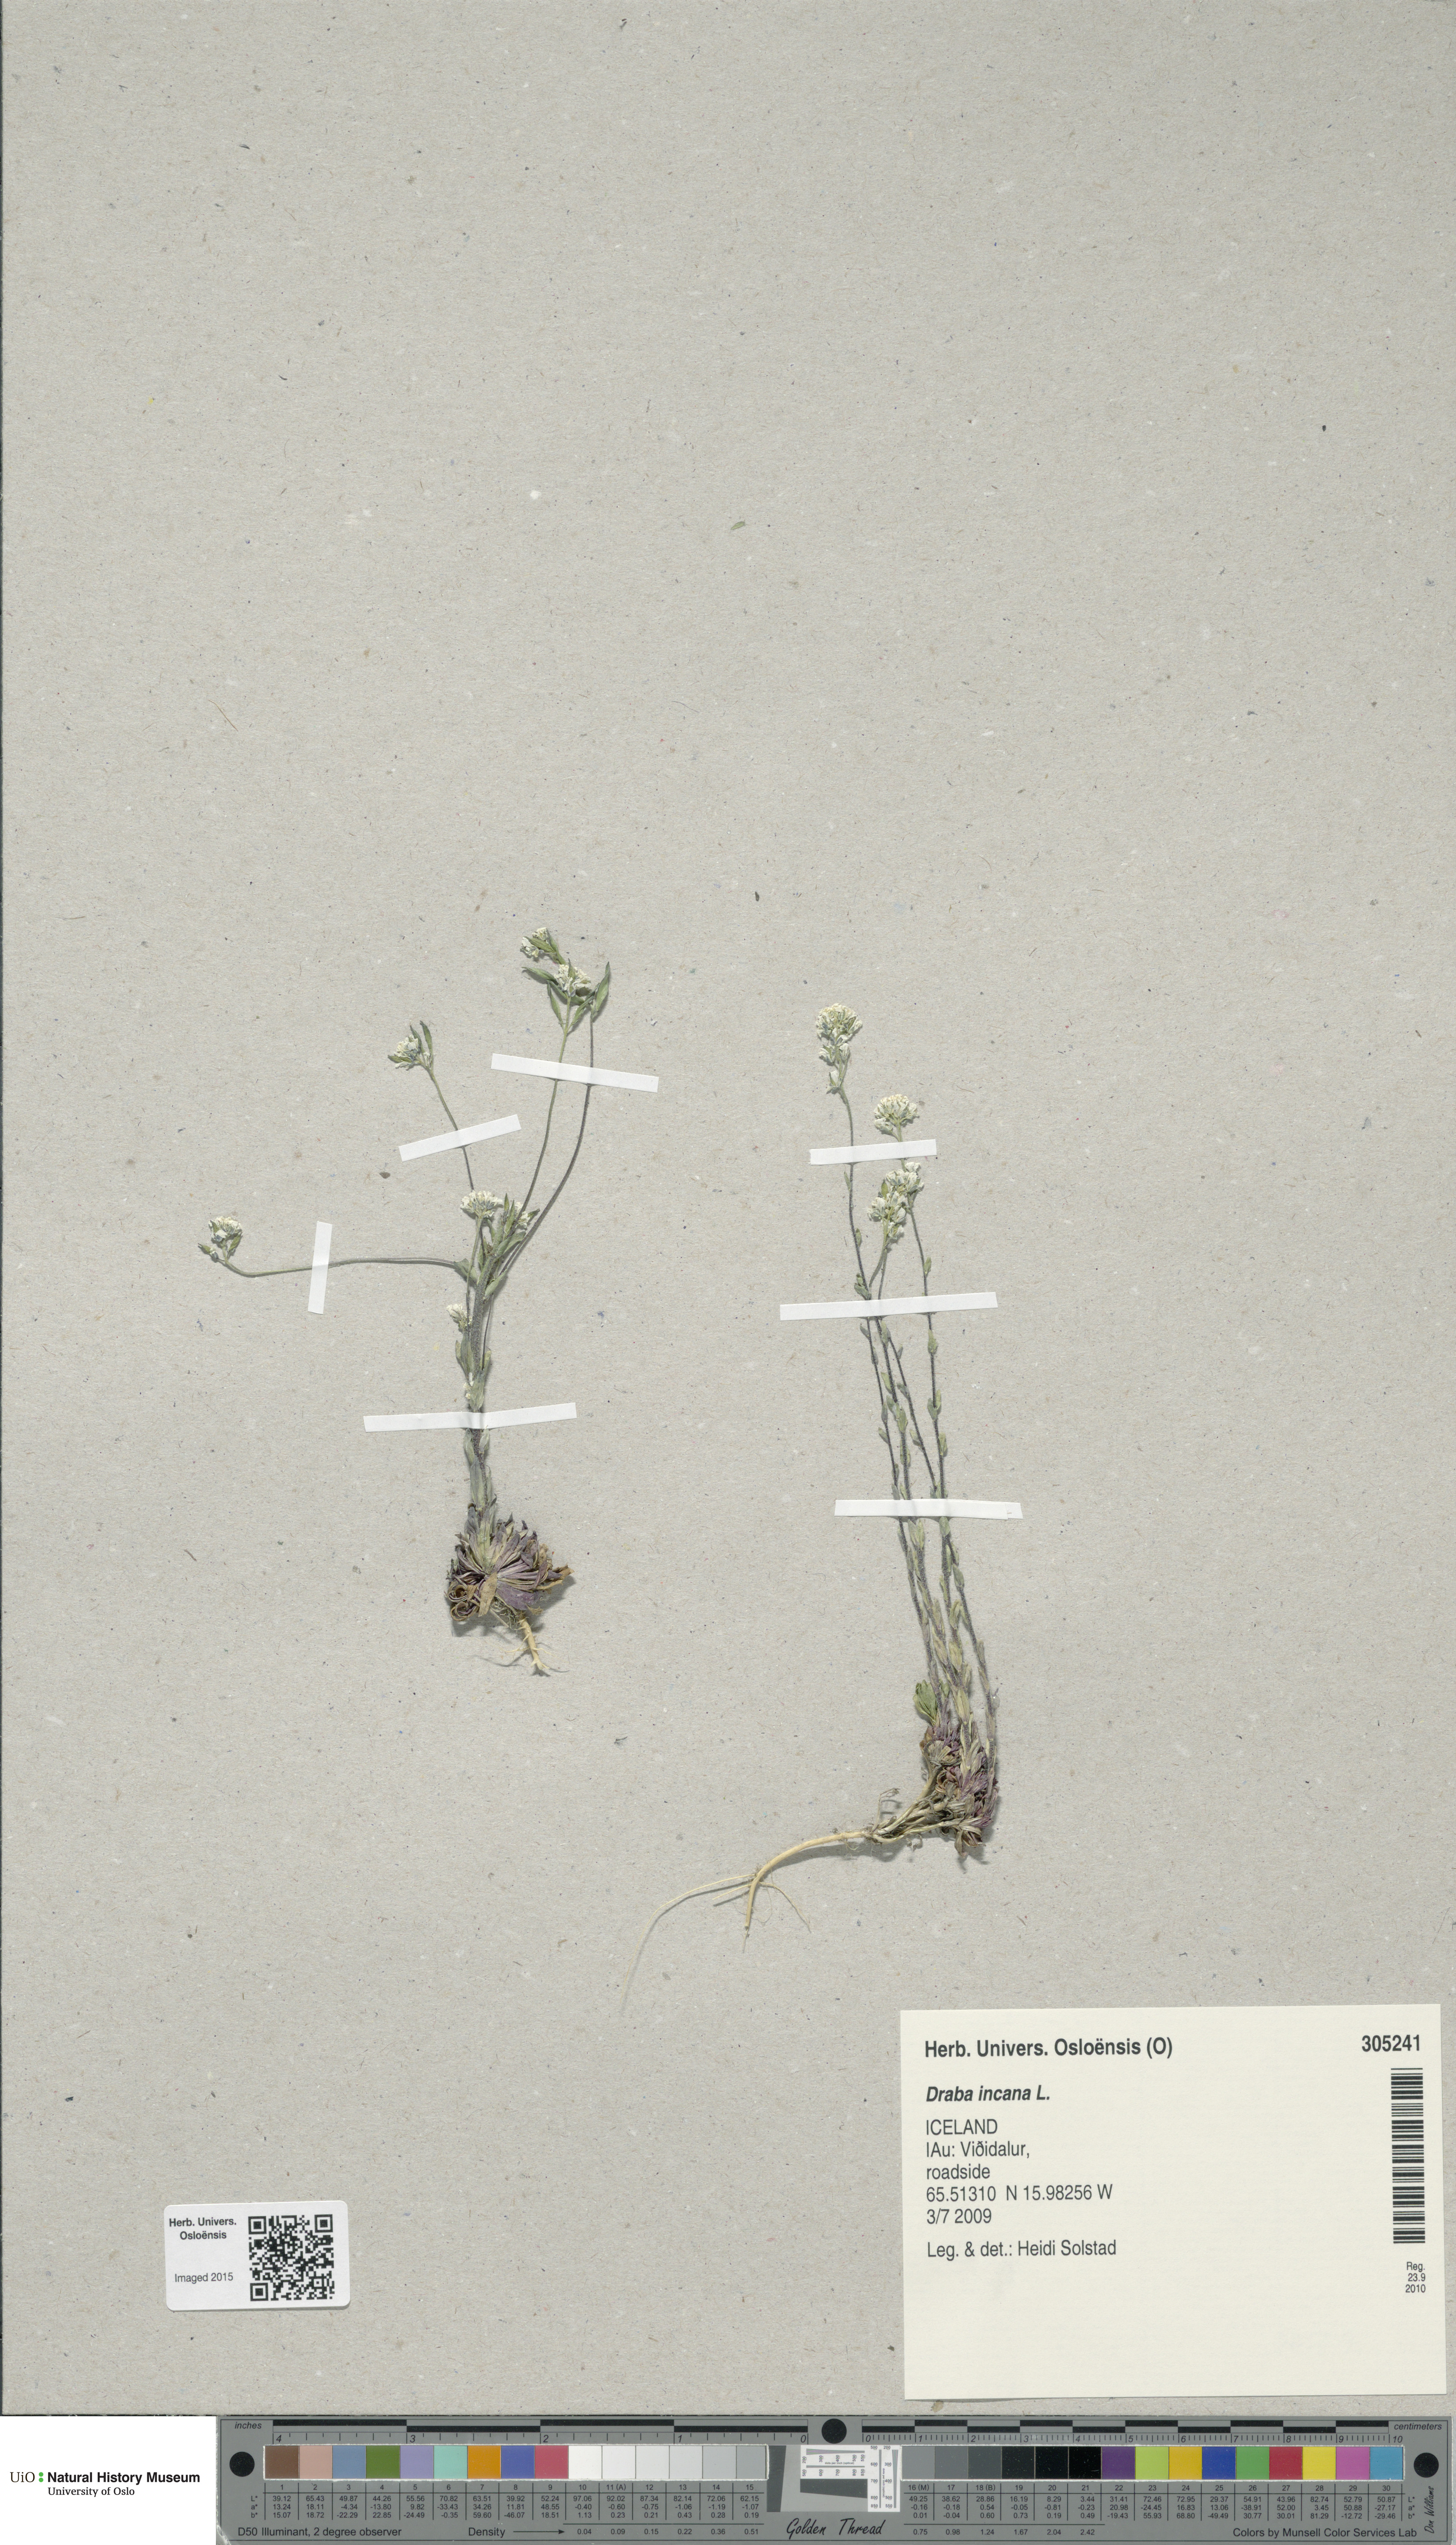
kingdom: Plantae
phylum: Tracheophyta
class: Magnoliopsida
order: Brassicales
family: Brassicaceae
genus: Draba
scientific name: Draba incana
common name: Hoary whitlow-grass
